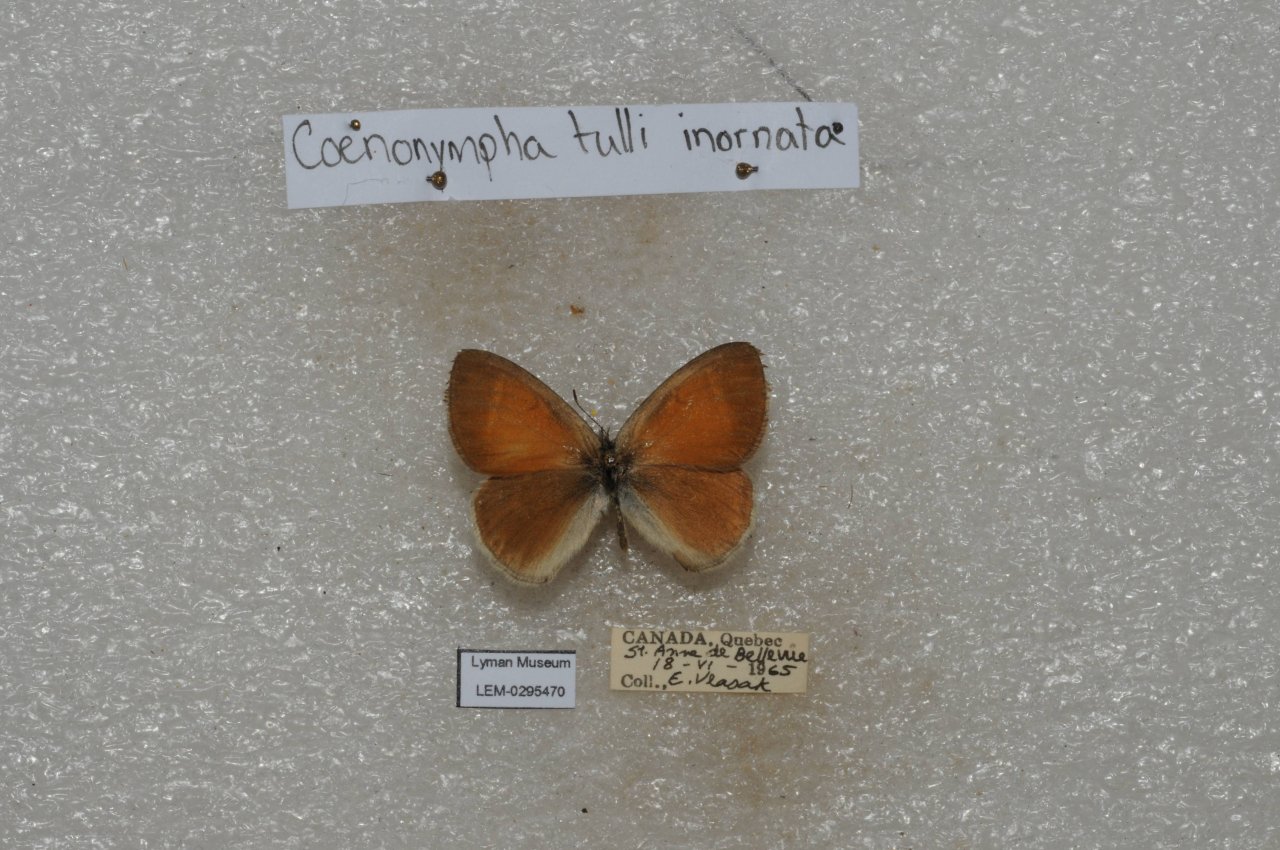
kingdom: Animalia
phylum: Arthropoda
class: Insecta
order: Lepidoptera
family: Nymphalidae
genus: Coenonympha
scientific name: Coenonympha tullia
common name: Large Heath
